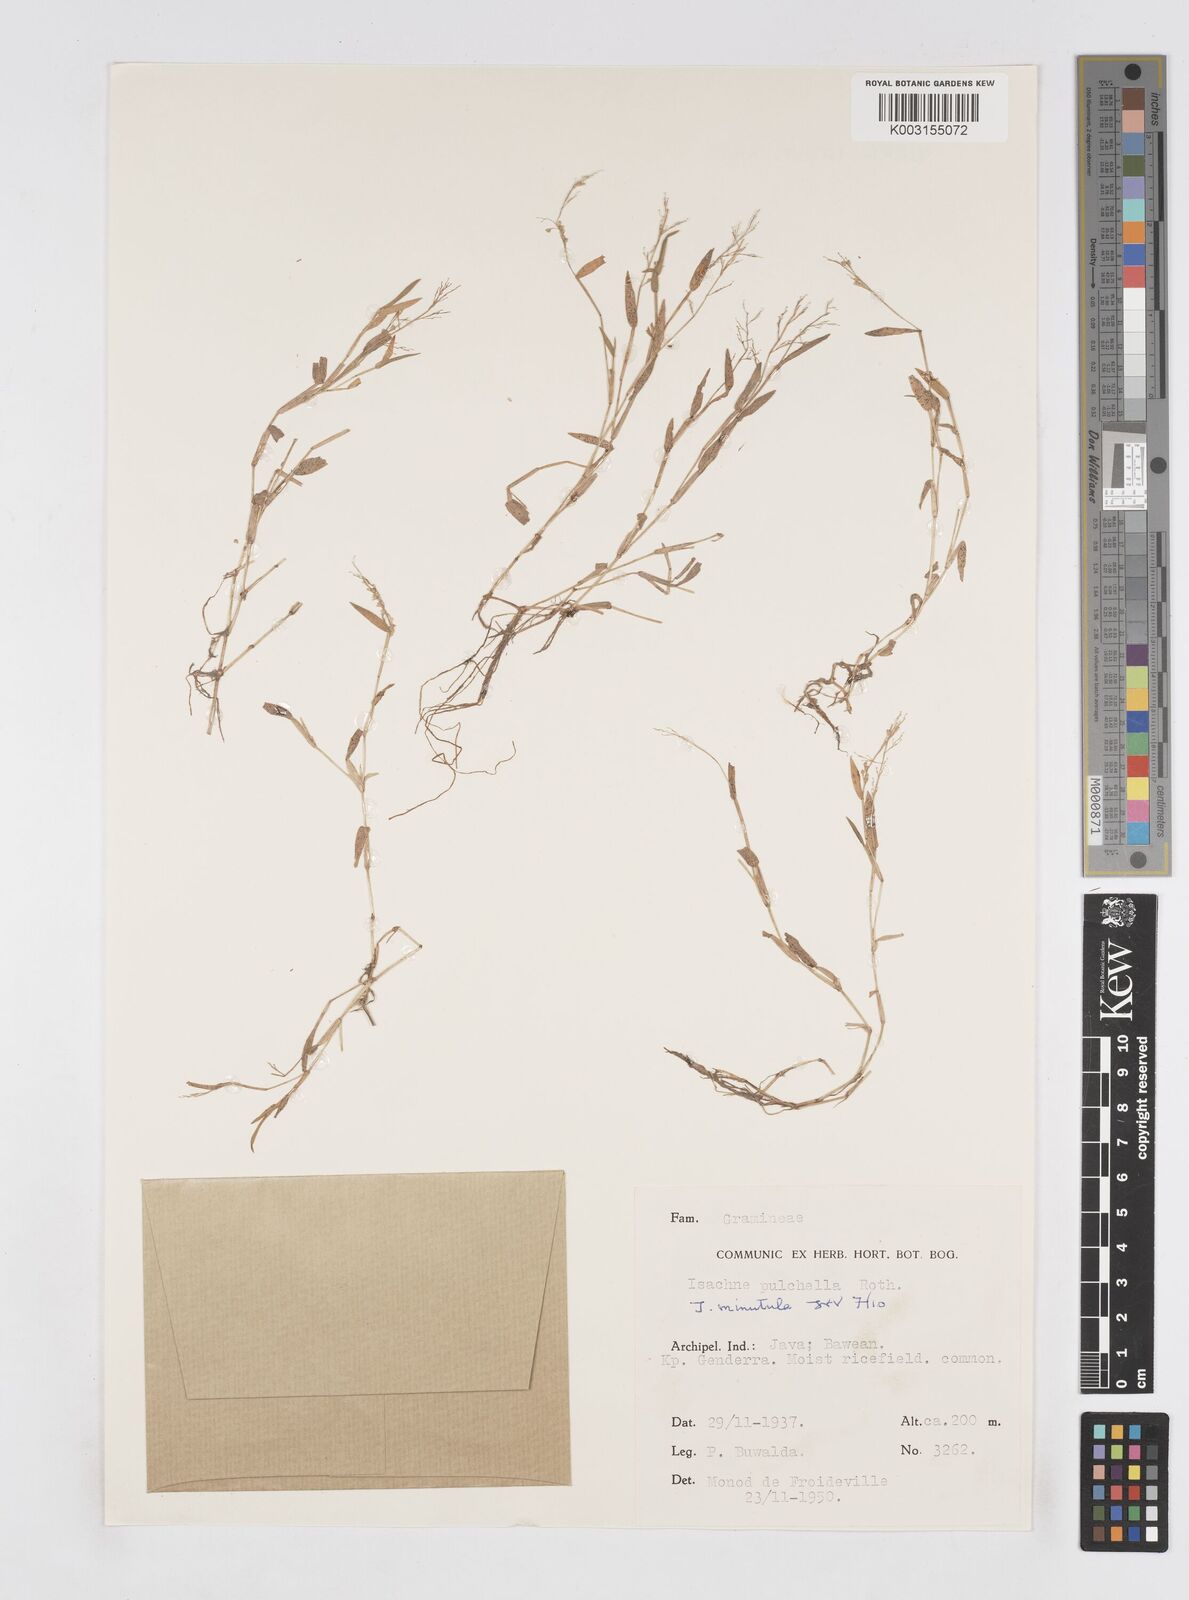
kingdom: Plantae
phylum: Tracheophyta
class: Liliopsida
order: Poales
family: Poaceae
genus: Isachne
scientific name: Isachne pulchella
